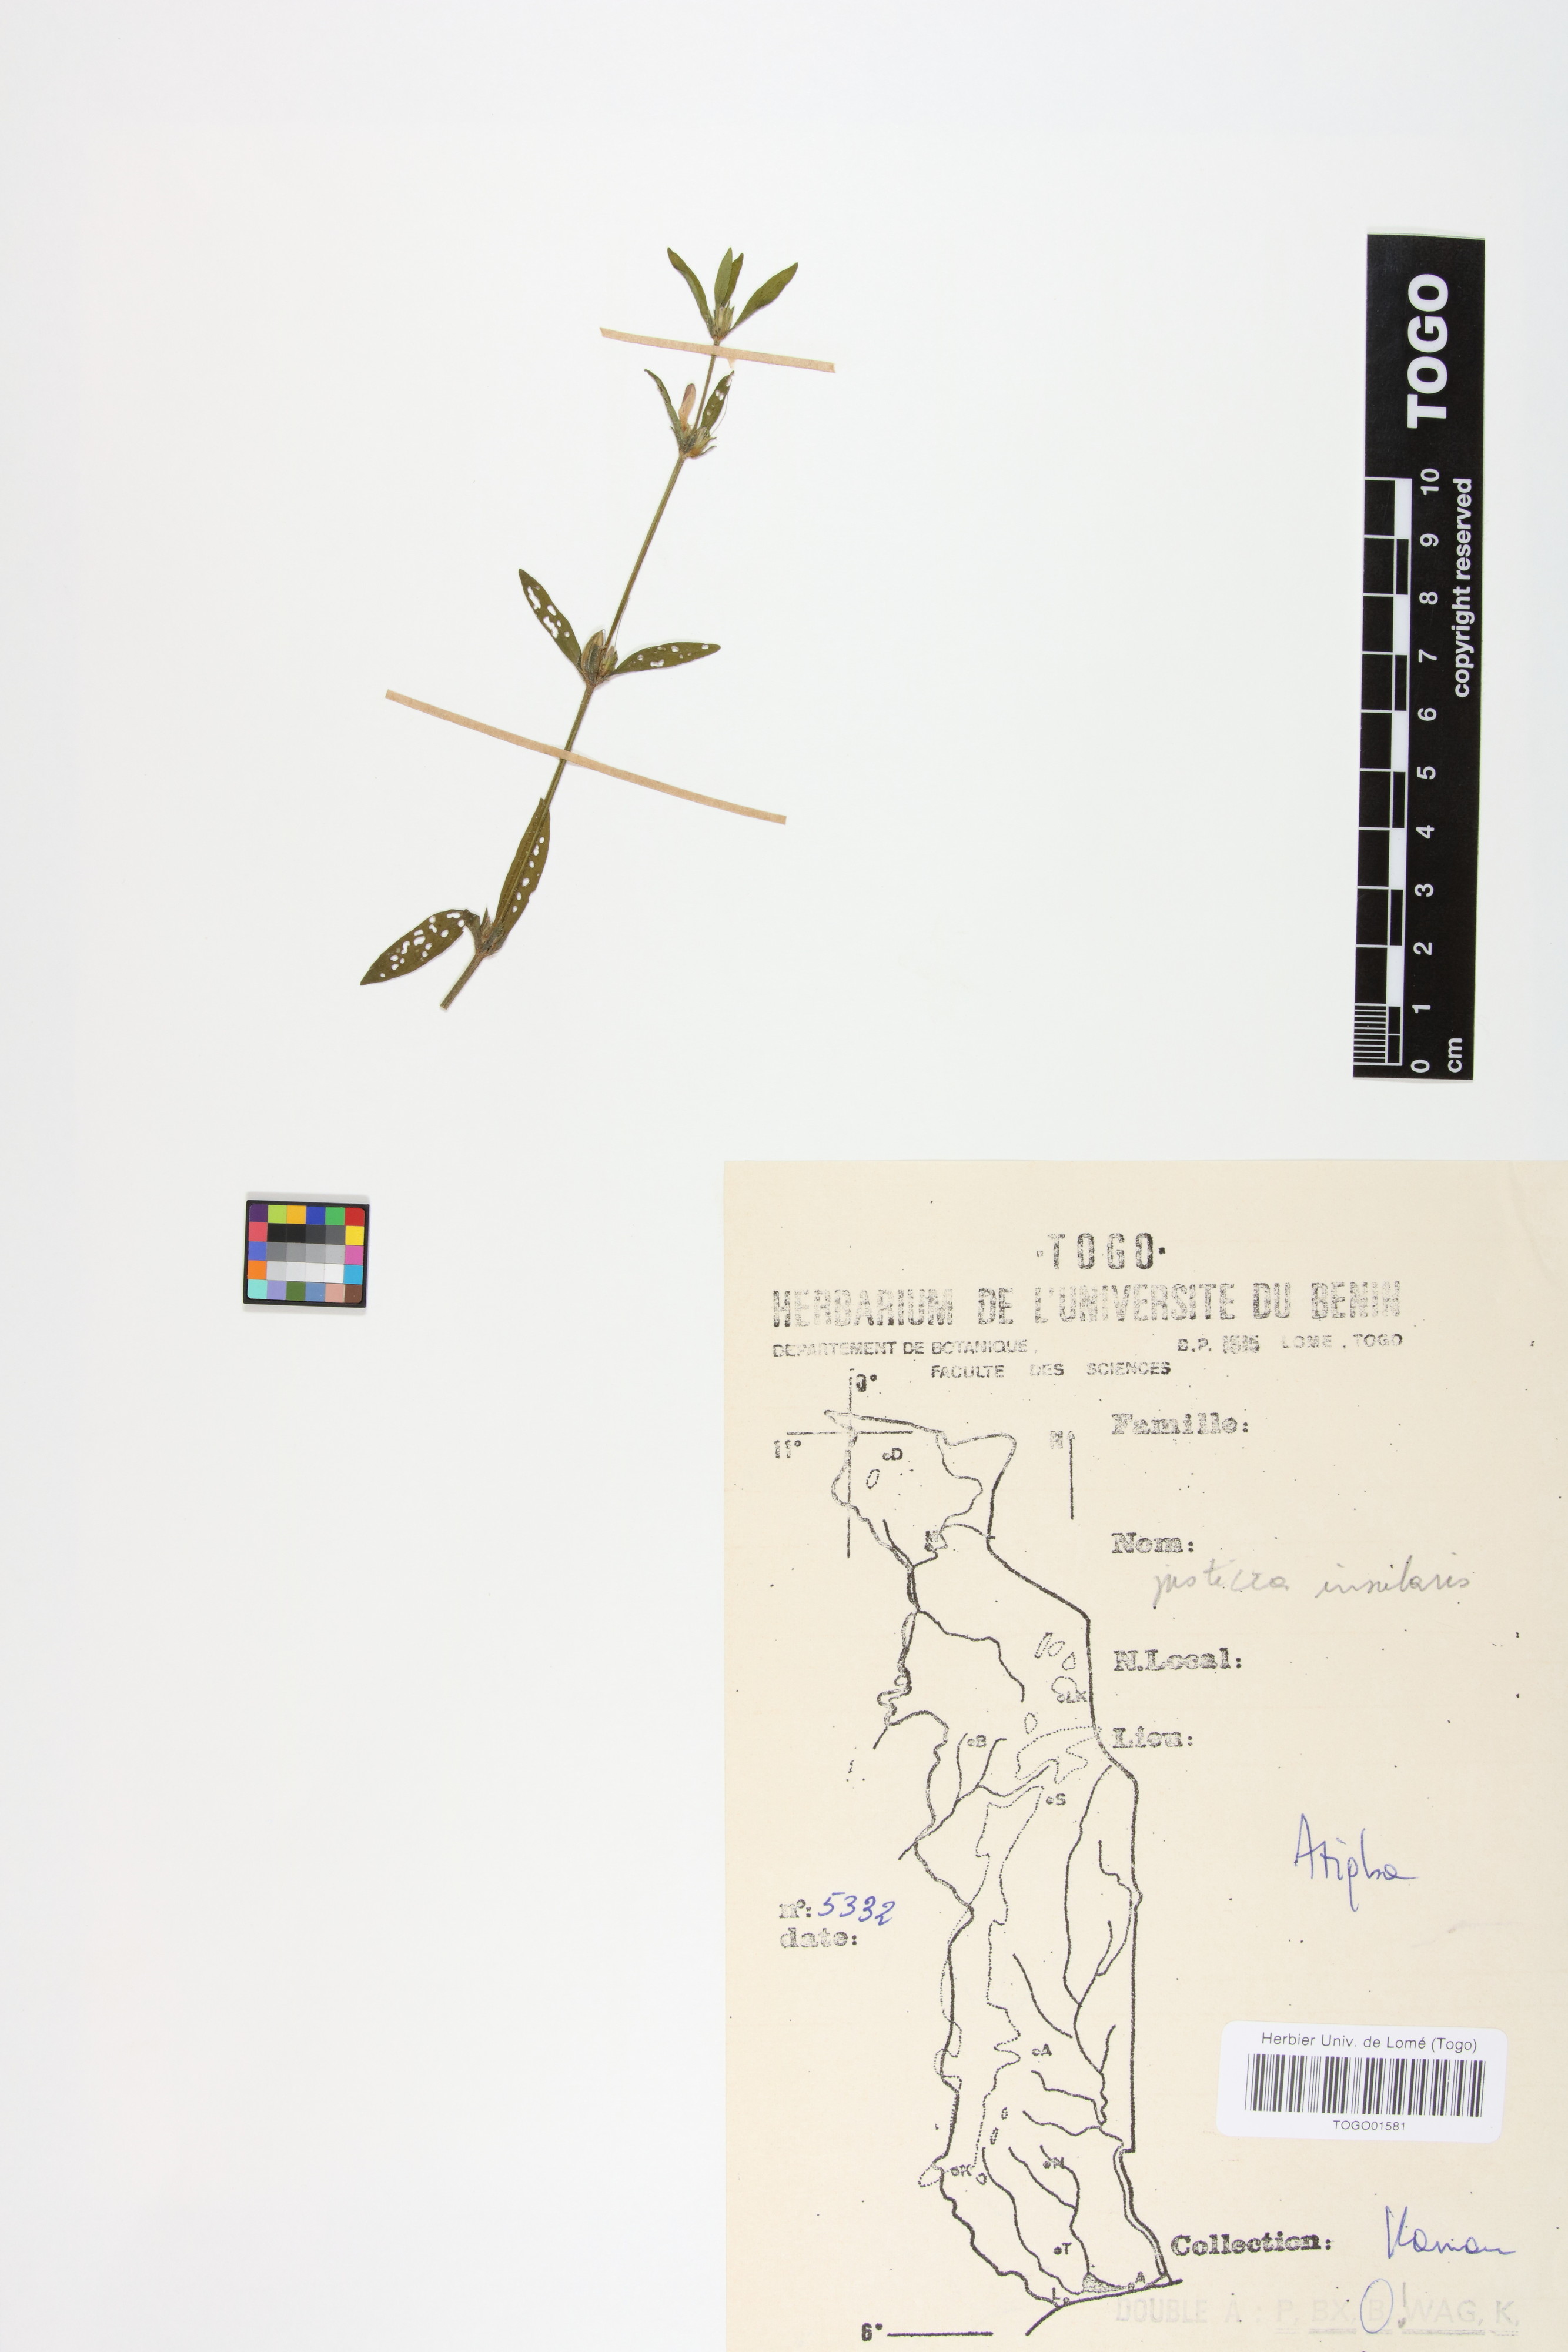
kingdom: Plantae
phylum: Tracheophyta
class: Magnoliopsida
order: Lamiales
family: Acanthaceae
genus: Justicia
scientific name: Justicia insularis
